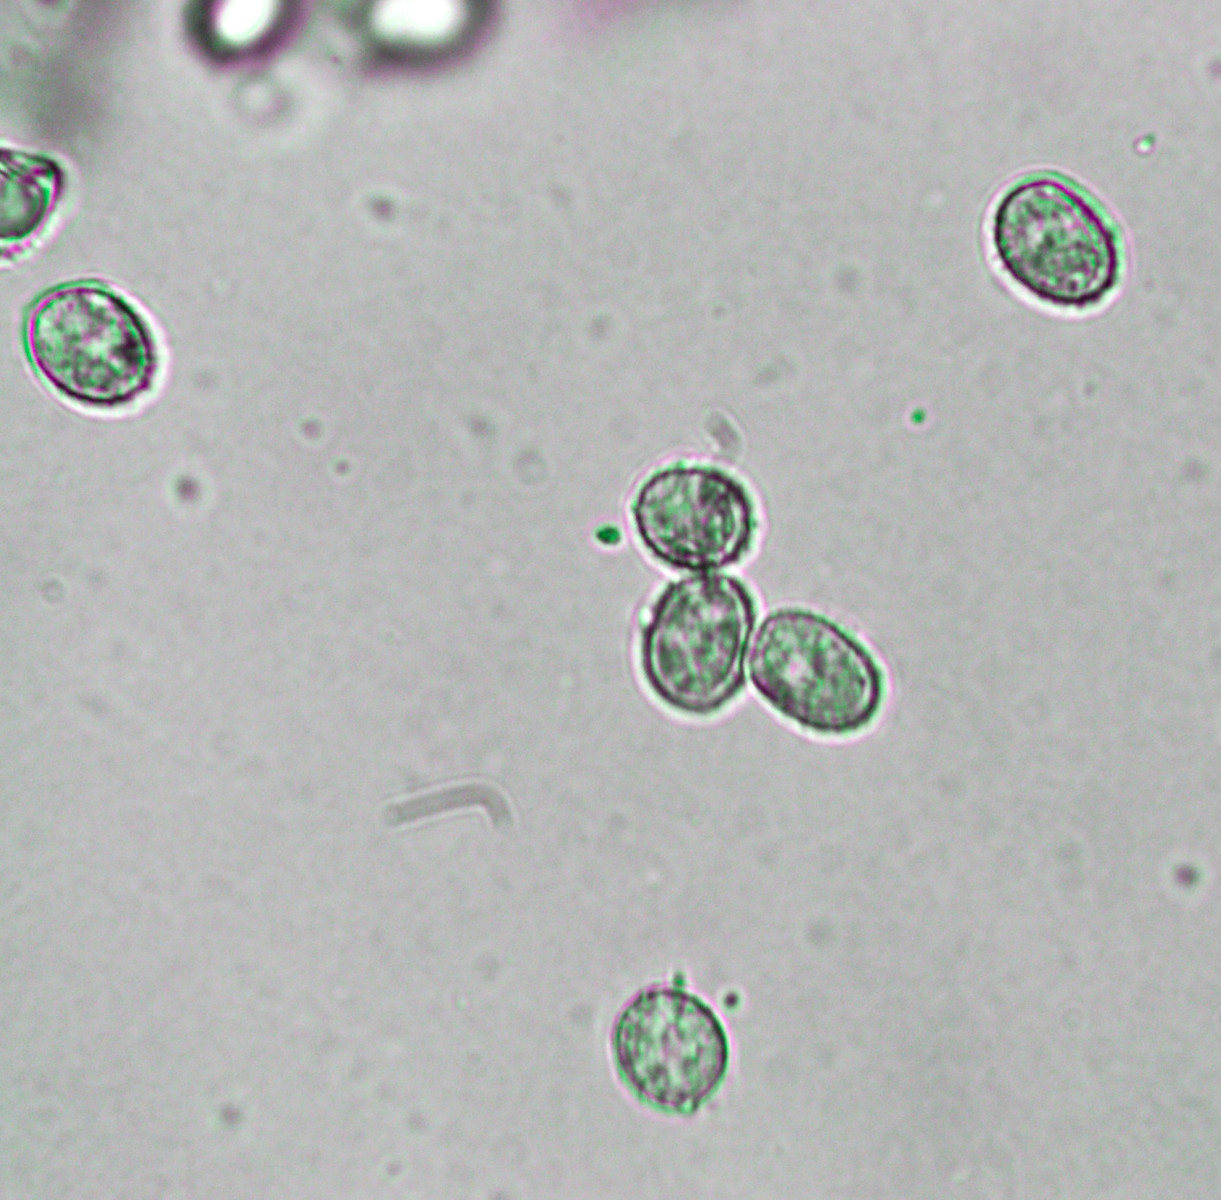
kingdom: Fungi
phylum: Basidiomycota
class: Agaricomycetes
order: Agaricales
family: Crepidotaceae
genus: Crepidotus
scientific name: Crepidotus cesatii
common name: almindelig muslingesvamp
